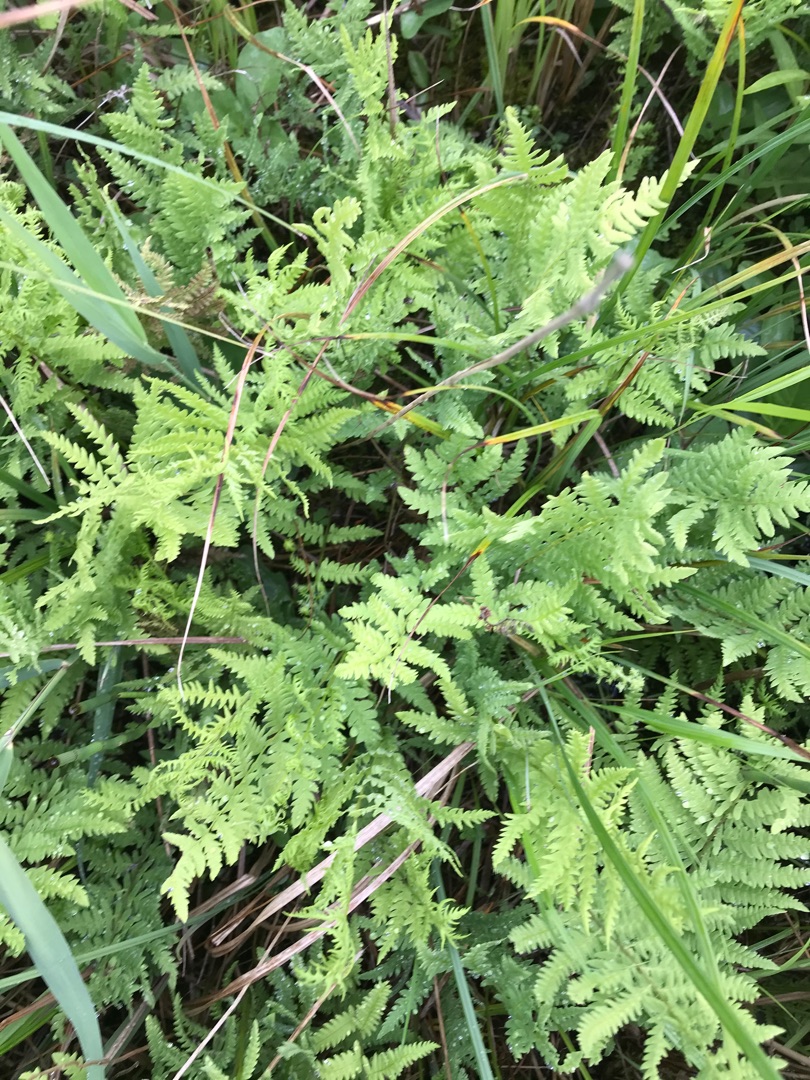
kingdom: Plantae
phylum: Tracheophyta
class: Polypodiopsida
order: Polypodiales
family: Thelypteridaceae
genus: Thelypteris
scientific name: Thelypteris palustris
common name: Kærmangeløv
